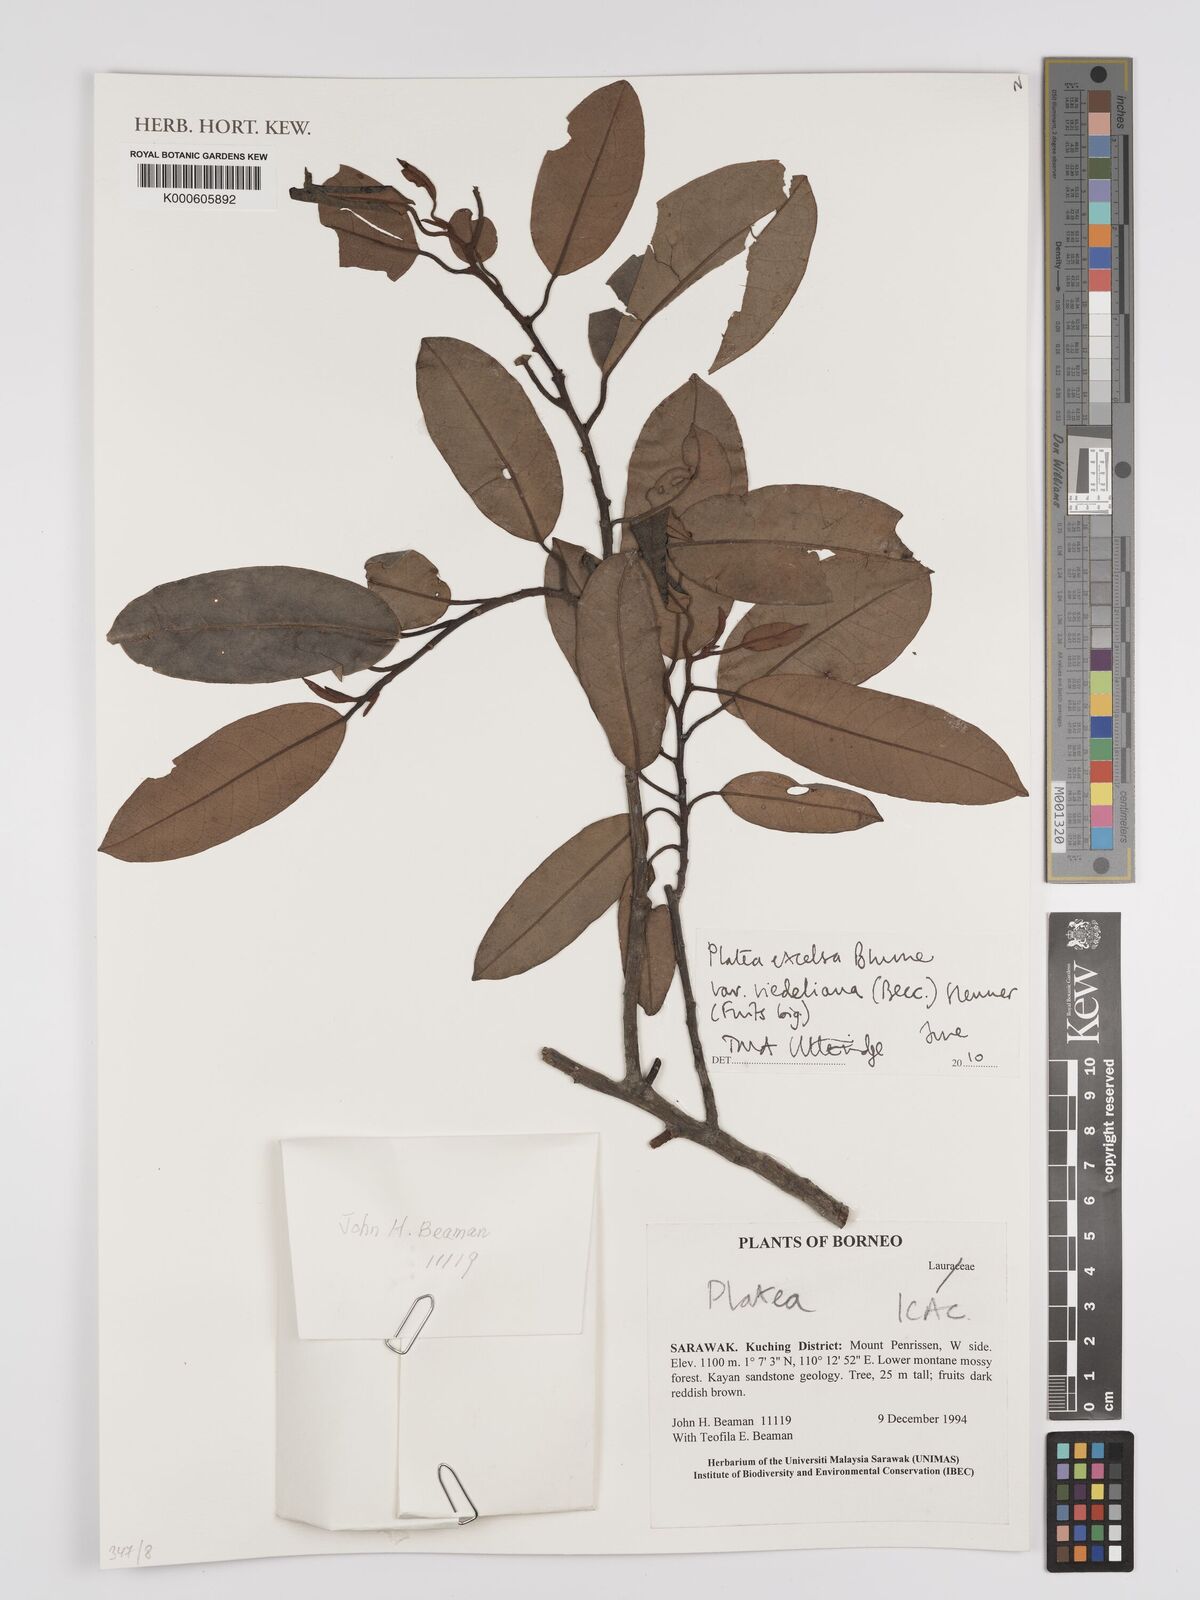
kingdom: Plantae
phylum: Tracheophyta
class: Magnoliopsida
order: Metteniusales
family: Metteniusaceae
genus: Platea
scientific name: Platea excelsa
